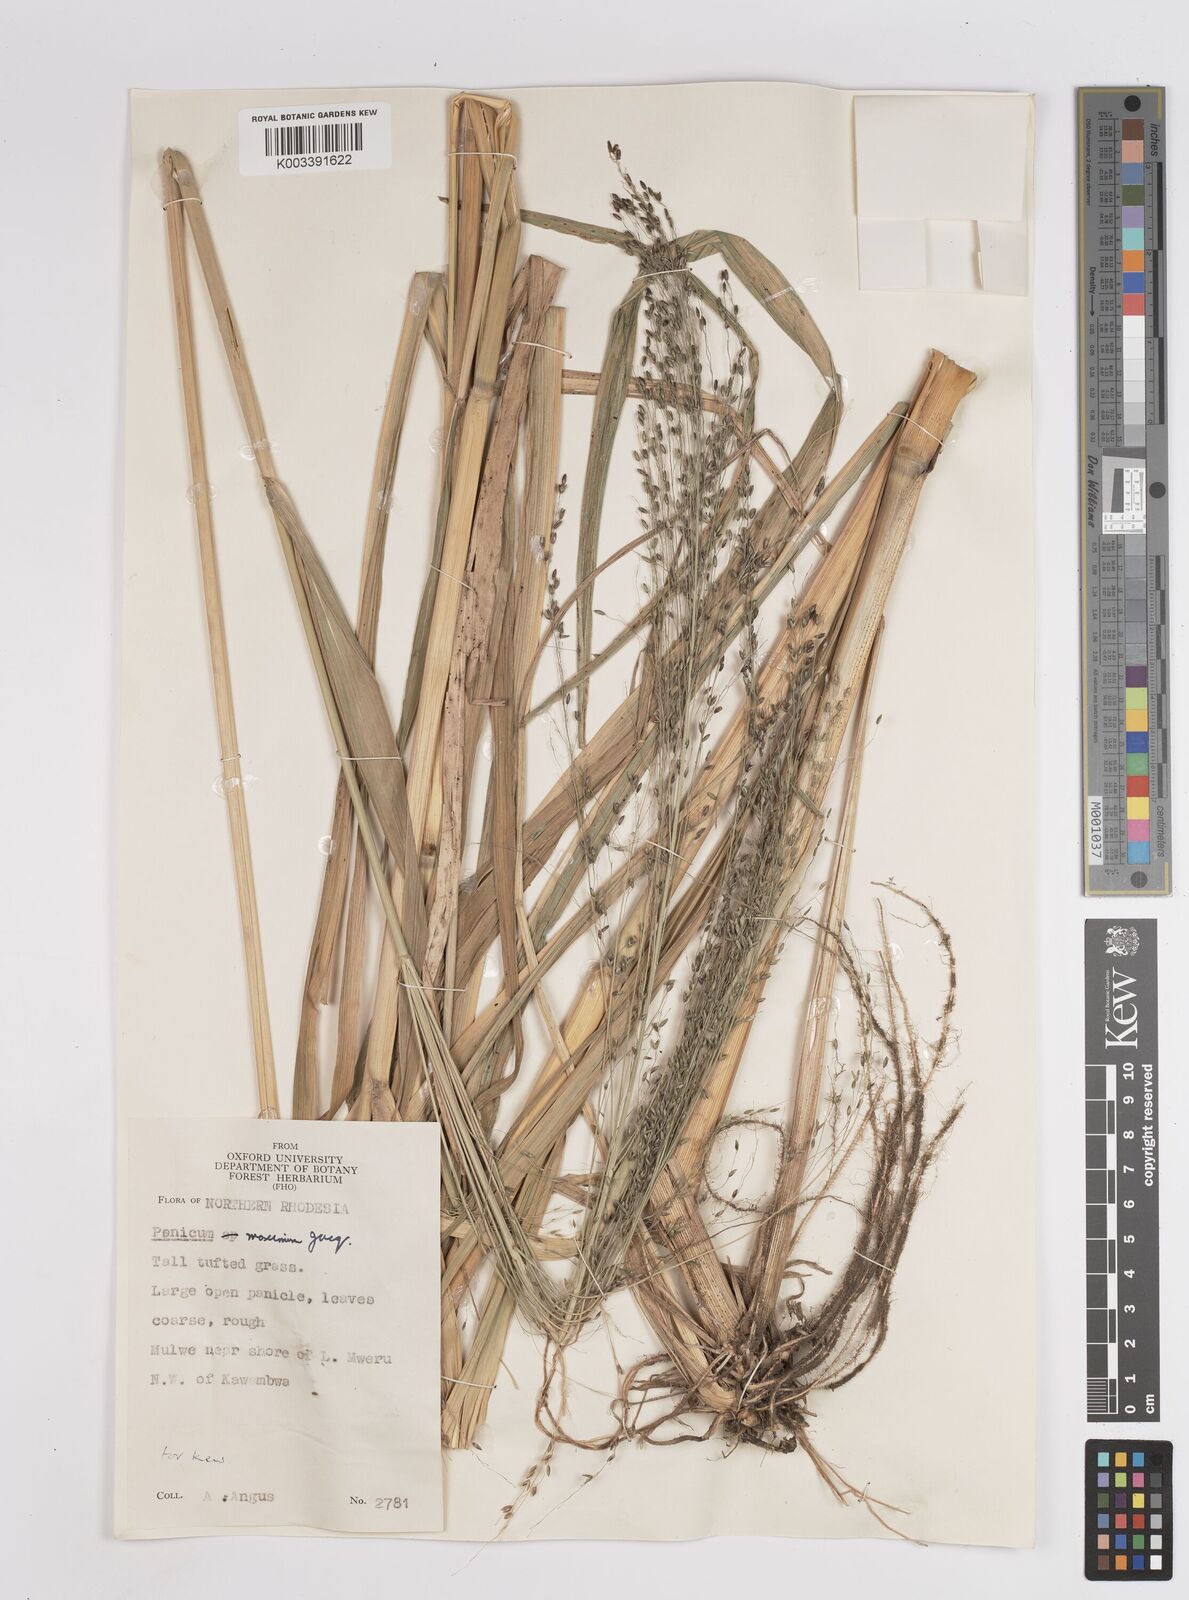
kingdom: Plantae
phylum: Tracheophyta
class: Liliopsida
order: Poales
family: Poaceae
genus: Megathyrsus
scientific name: Megathyrsus maximus
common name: Guineagrass
